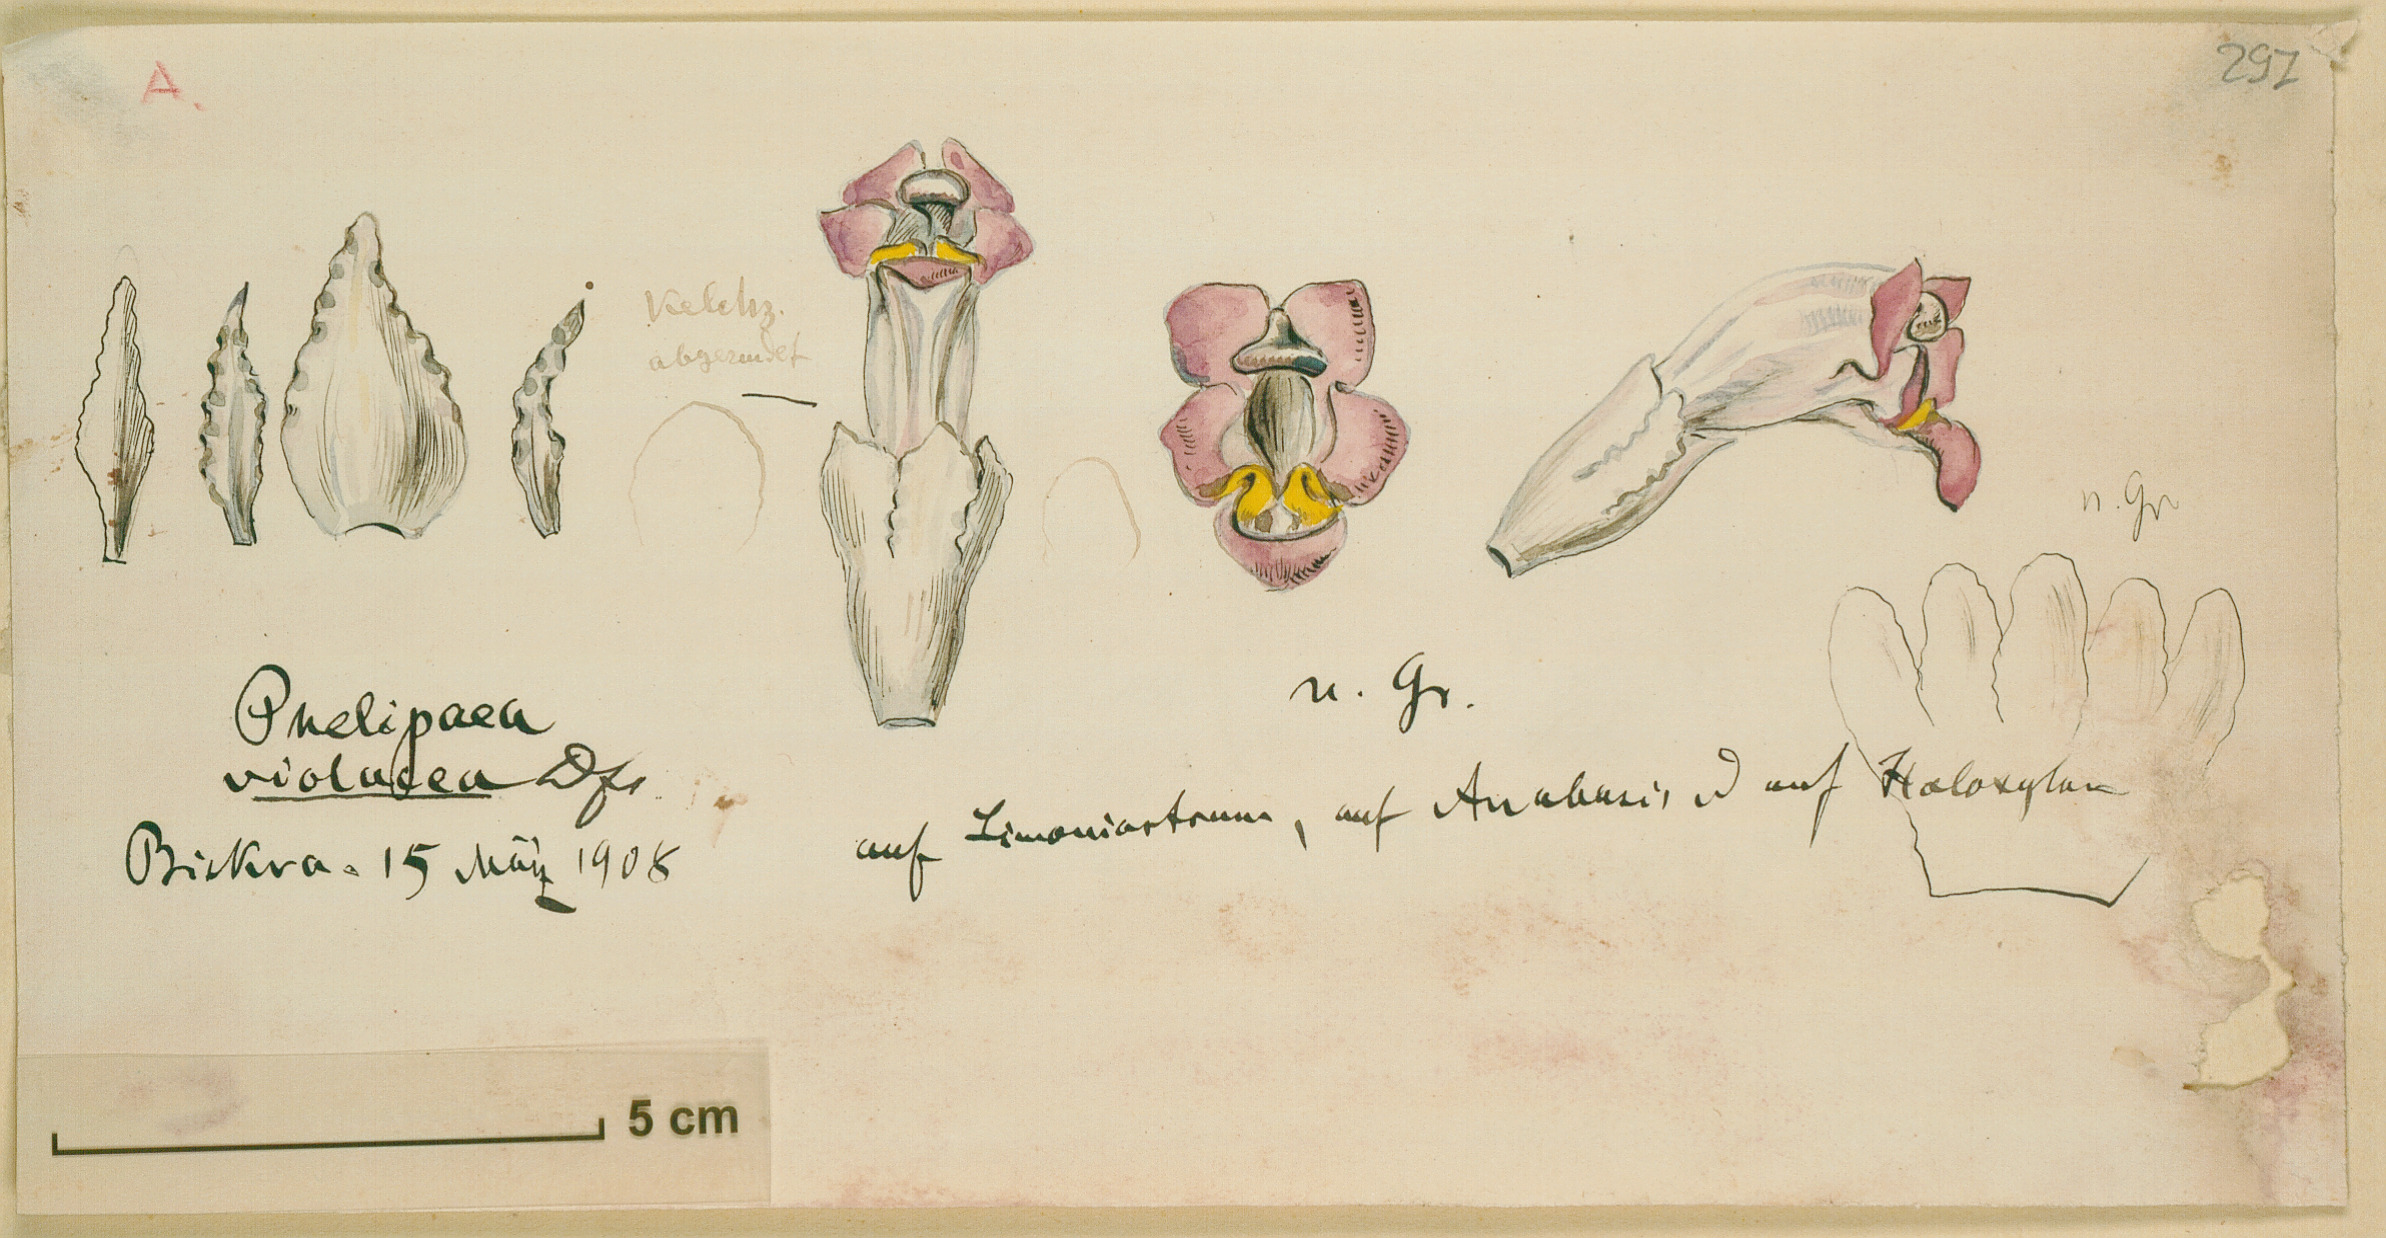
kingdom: Plantae
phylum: Tracheophyta
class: Magnoliopsida
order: Lamiales
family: Orobanchaceae
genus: Cistanche
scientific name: Cistanche violacea
